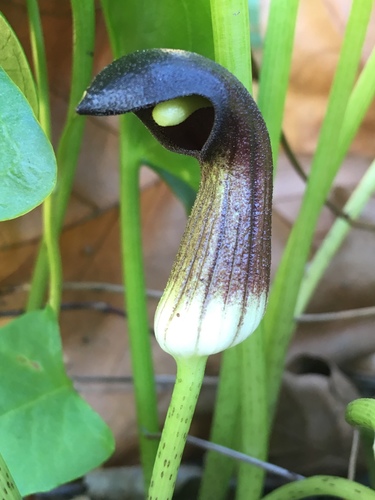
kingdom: Plantae
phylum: Tracheophyta
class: Liliopsida
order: Alismatales
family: Araceae
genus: Arisarum
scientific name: Arisarum simorrhinum
